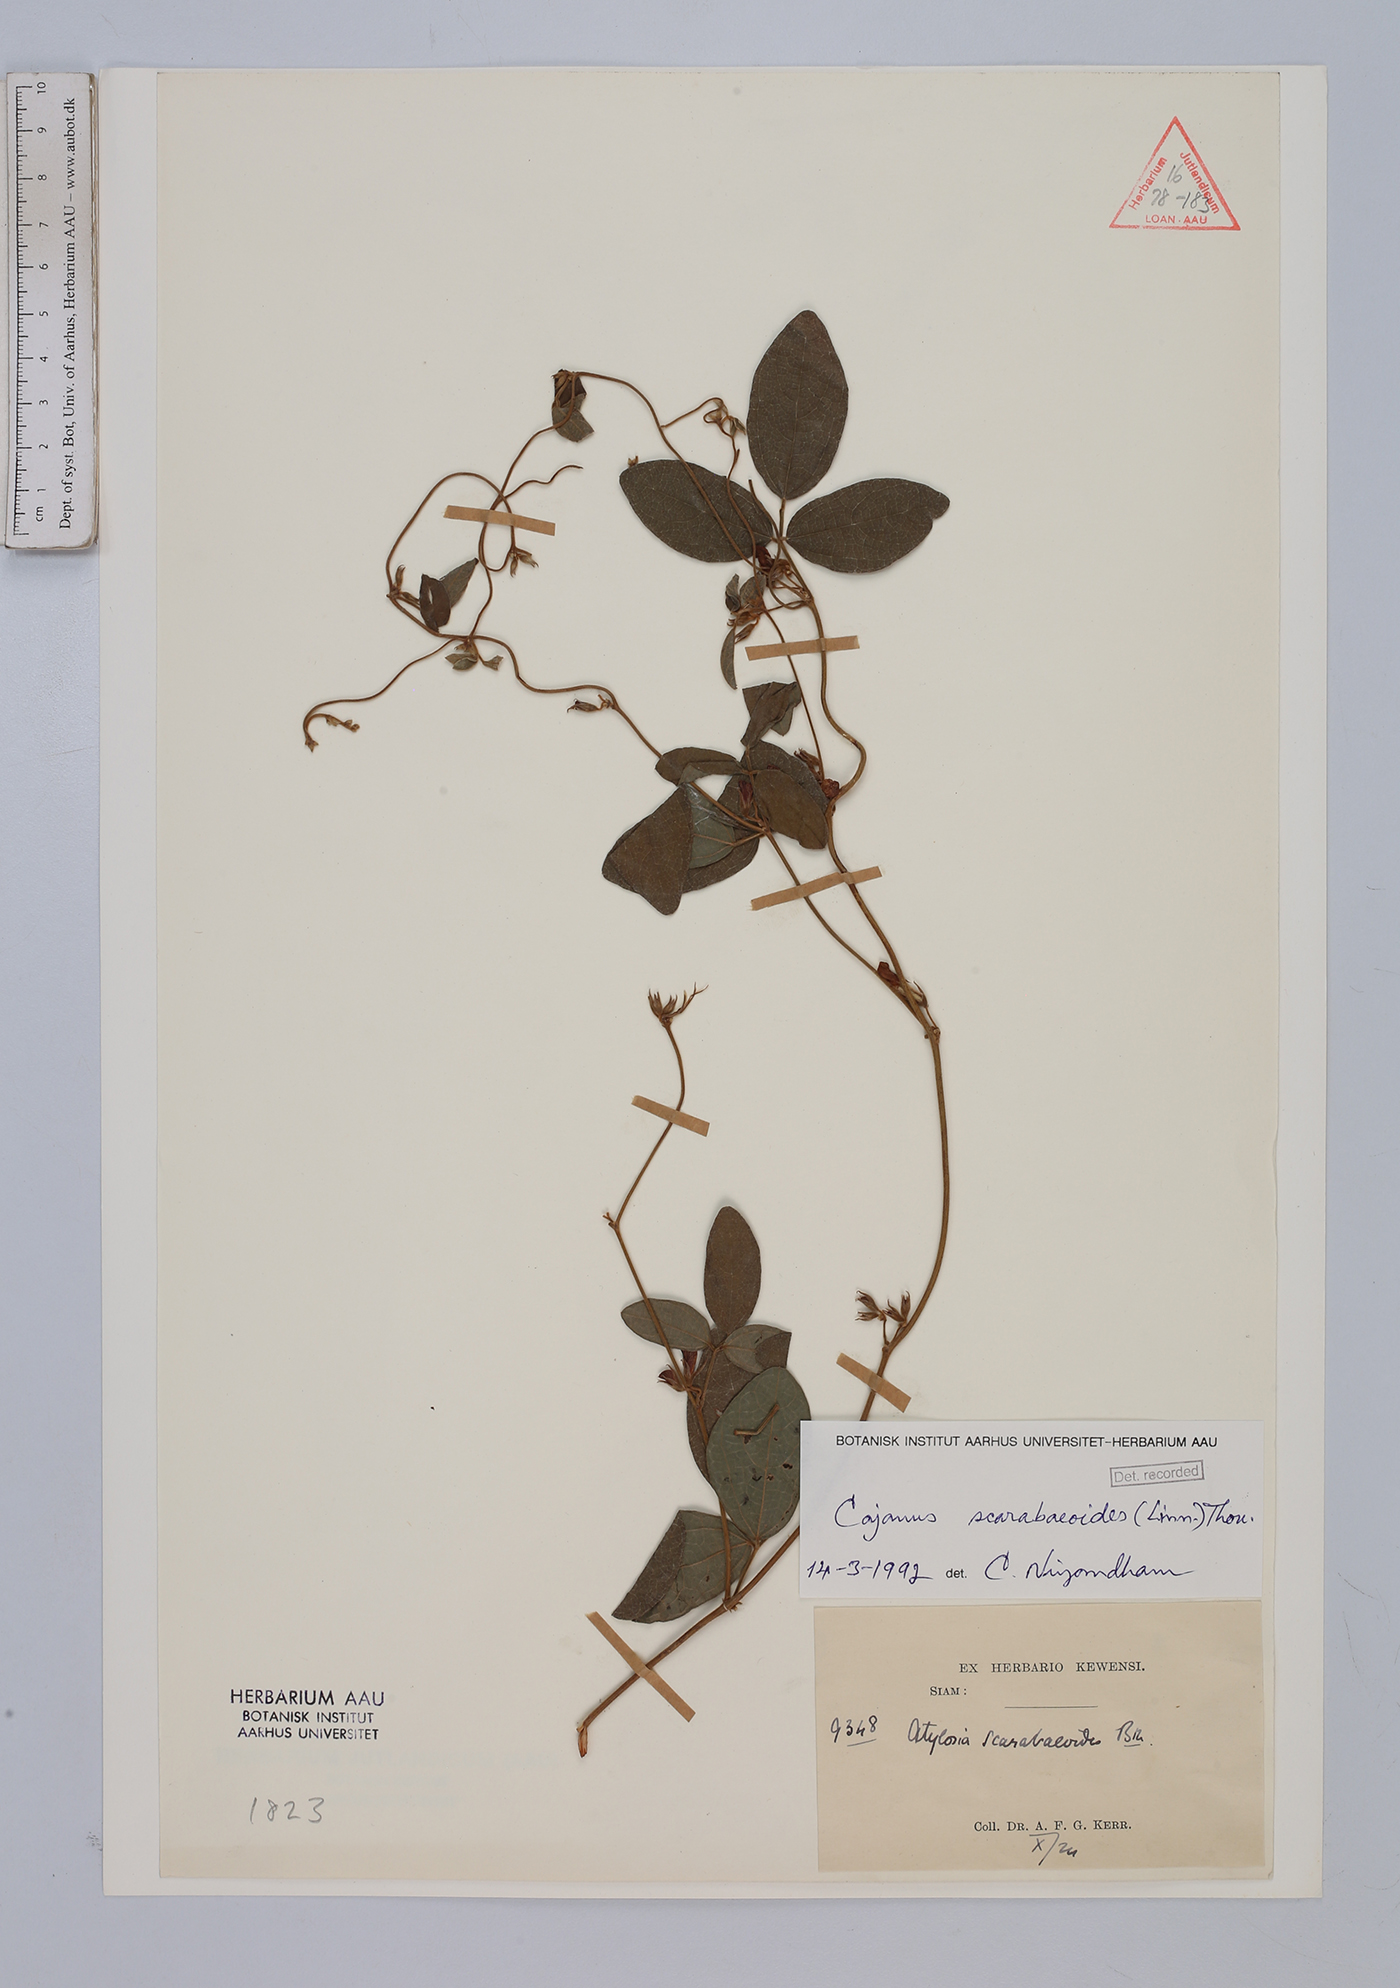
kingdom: Plantae
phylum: Tracheophyta
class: Magnoliopsida
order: Fabales
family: Fabaceae
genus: Cajanus
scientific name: Cajanus scarabaeoides
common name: Showy pigeonpea
